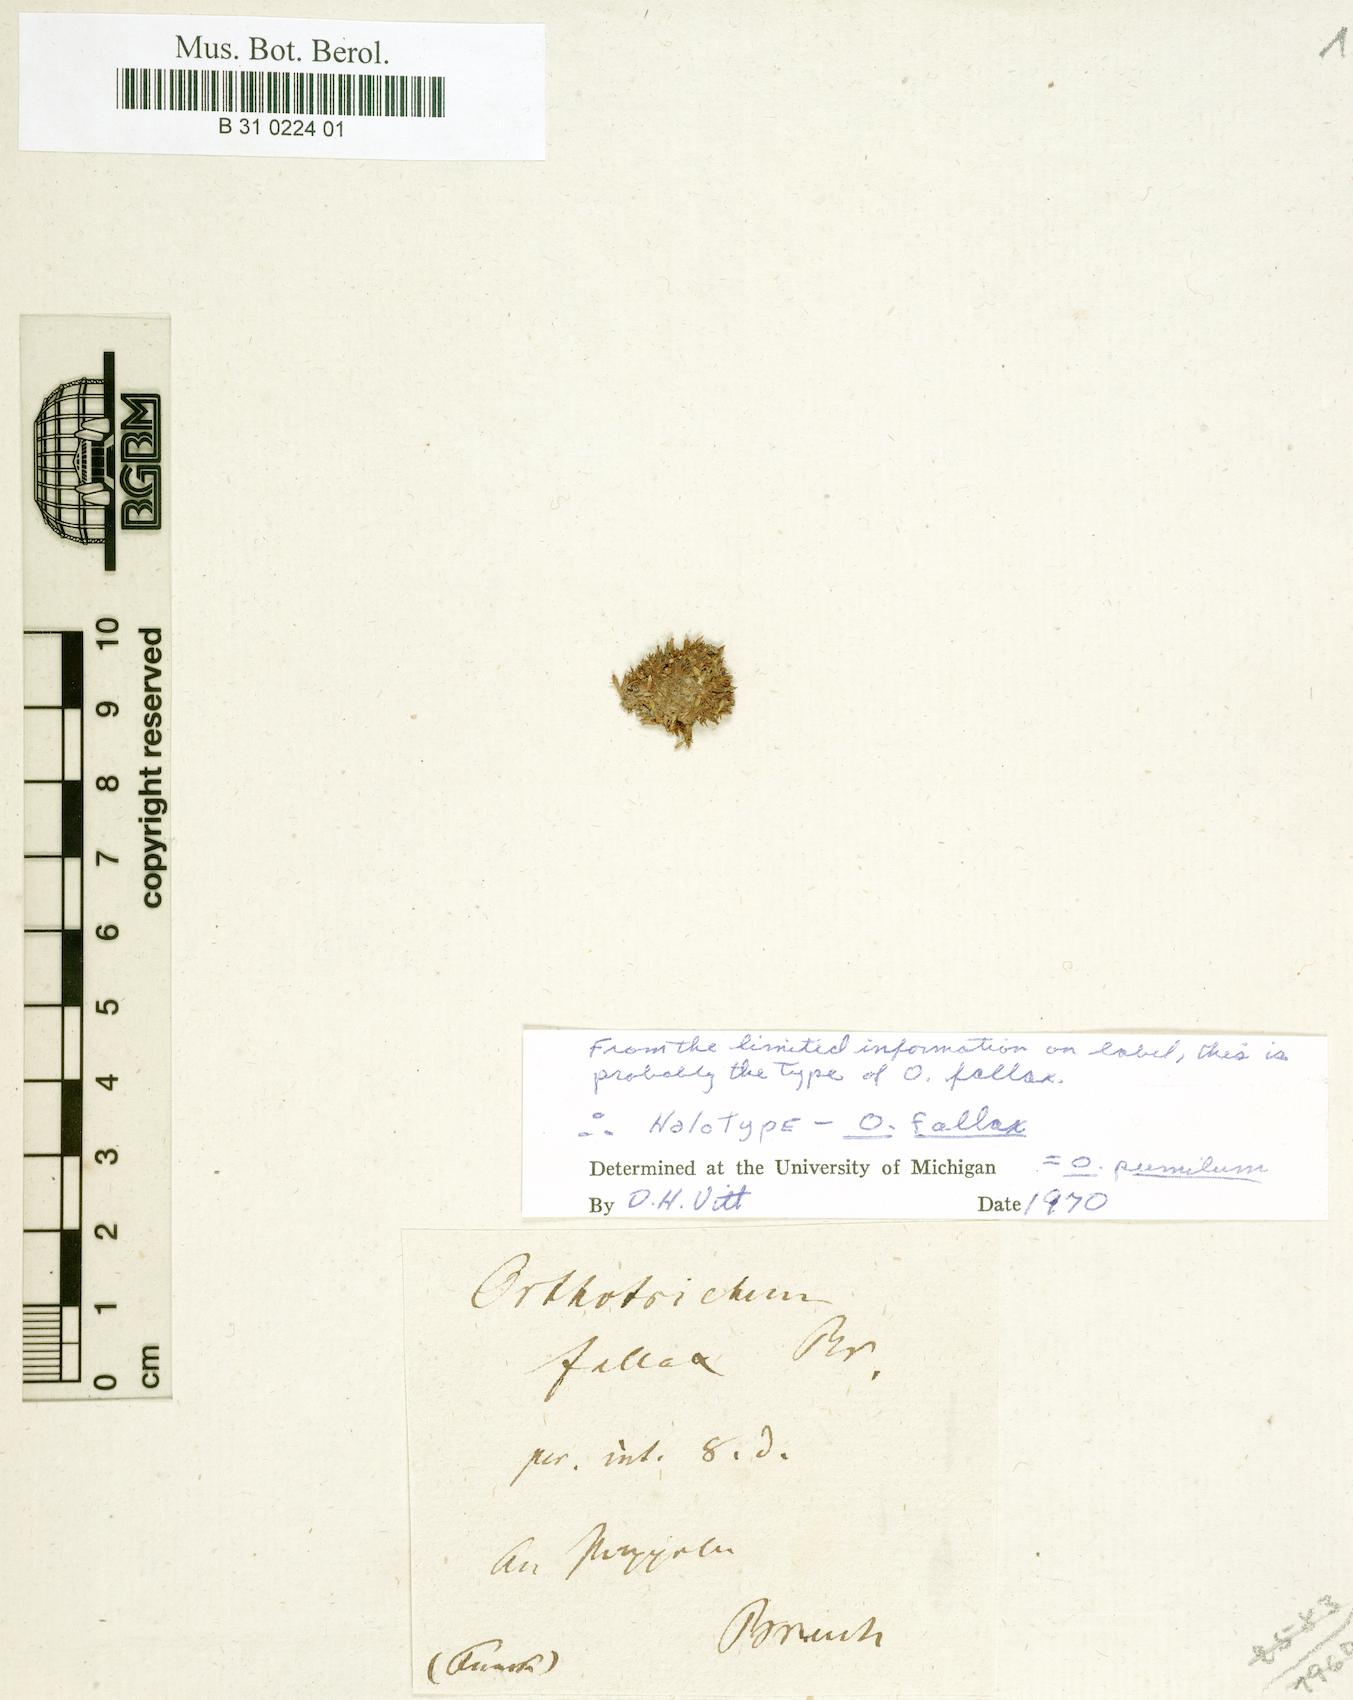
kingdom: Plantae
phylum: Bryophyta
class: Bryopsida
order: Orthotrichales
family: Orthotrichaceae
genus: Orthotrichum
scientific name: Orthotrichum pumilum
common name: Dwarf bristle moss
